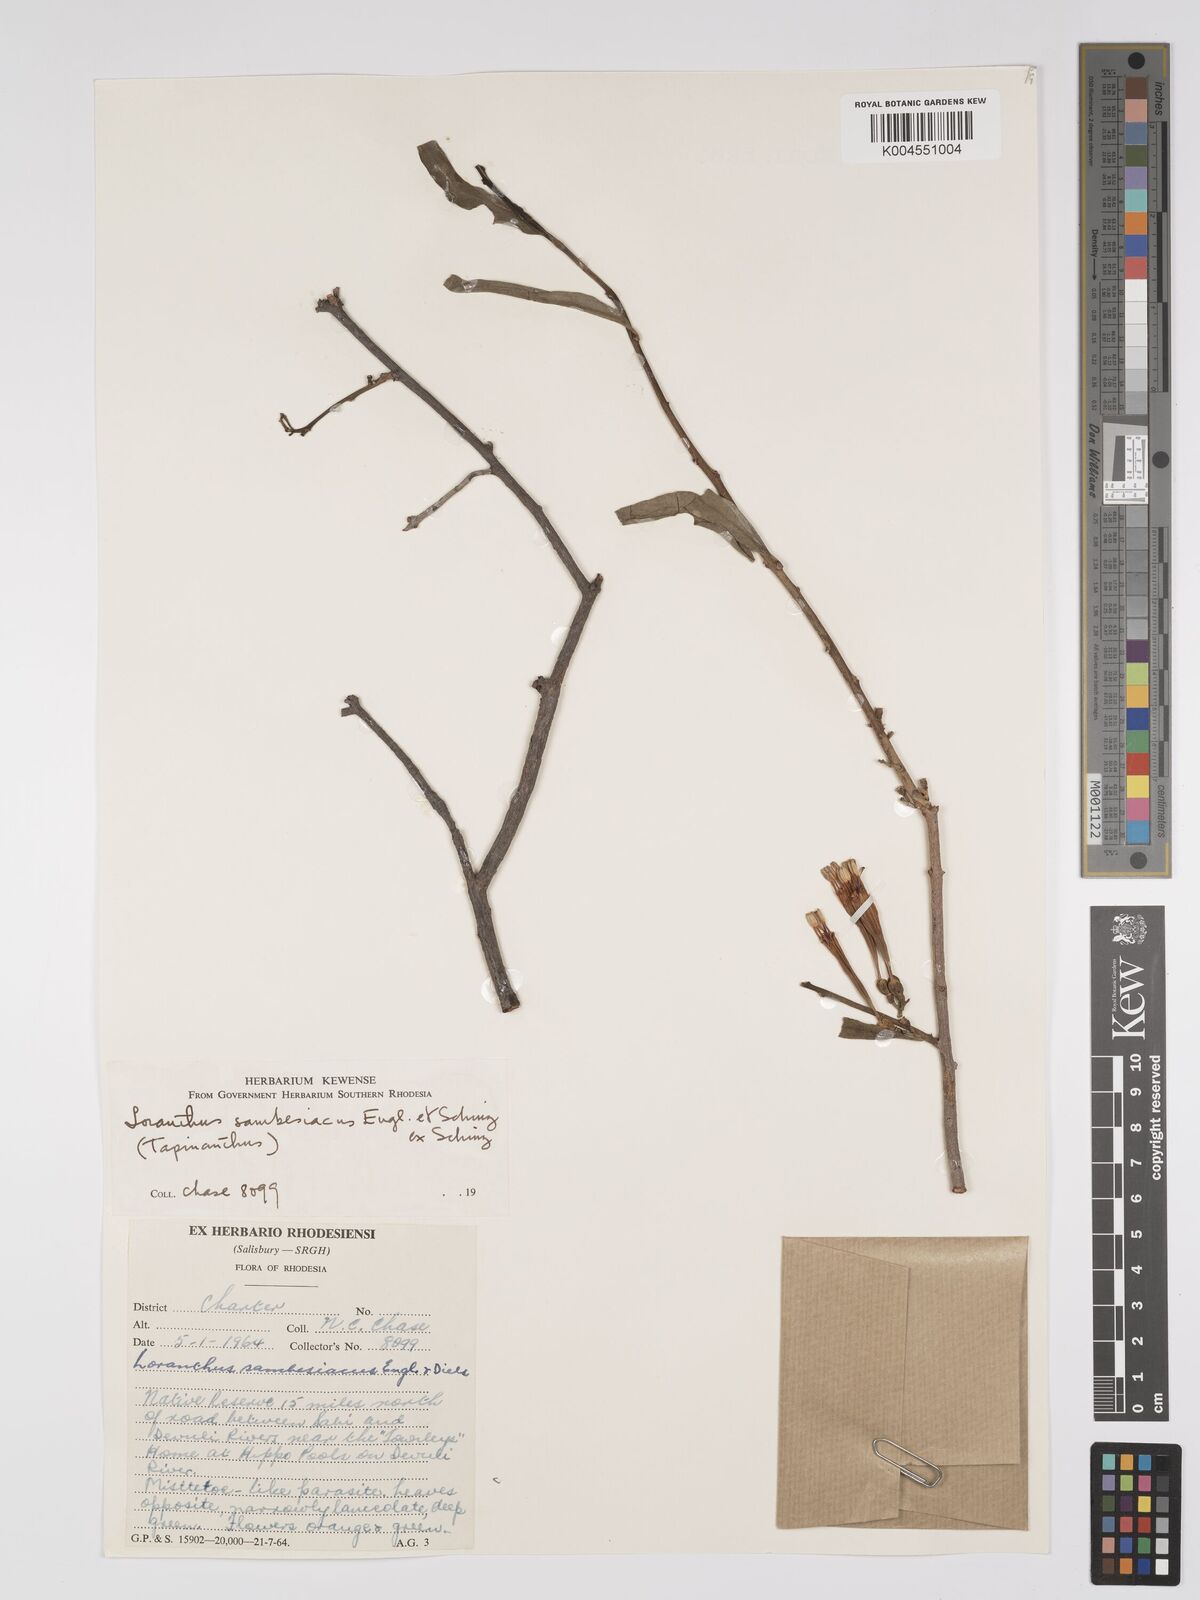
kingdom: Plantae
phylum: Tracheophyta
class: Magnoliopsida
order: Santalales
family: Loranthaceae
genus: Agelanthus
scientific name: Agelanthus sambesiacus
